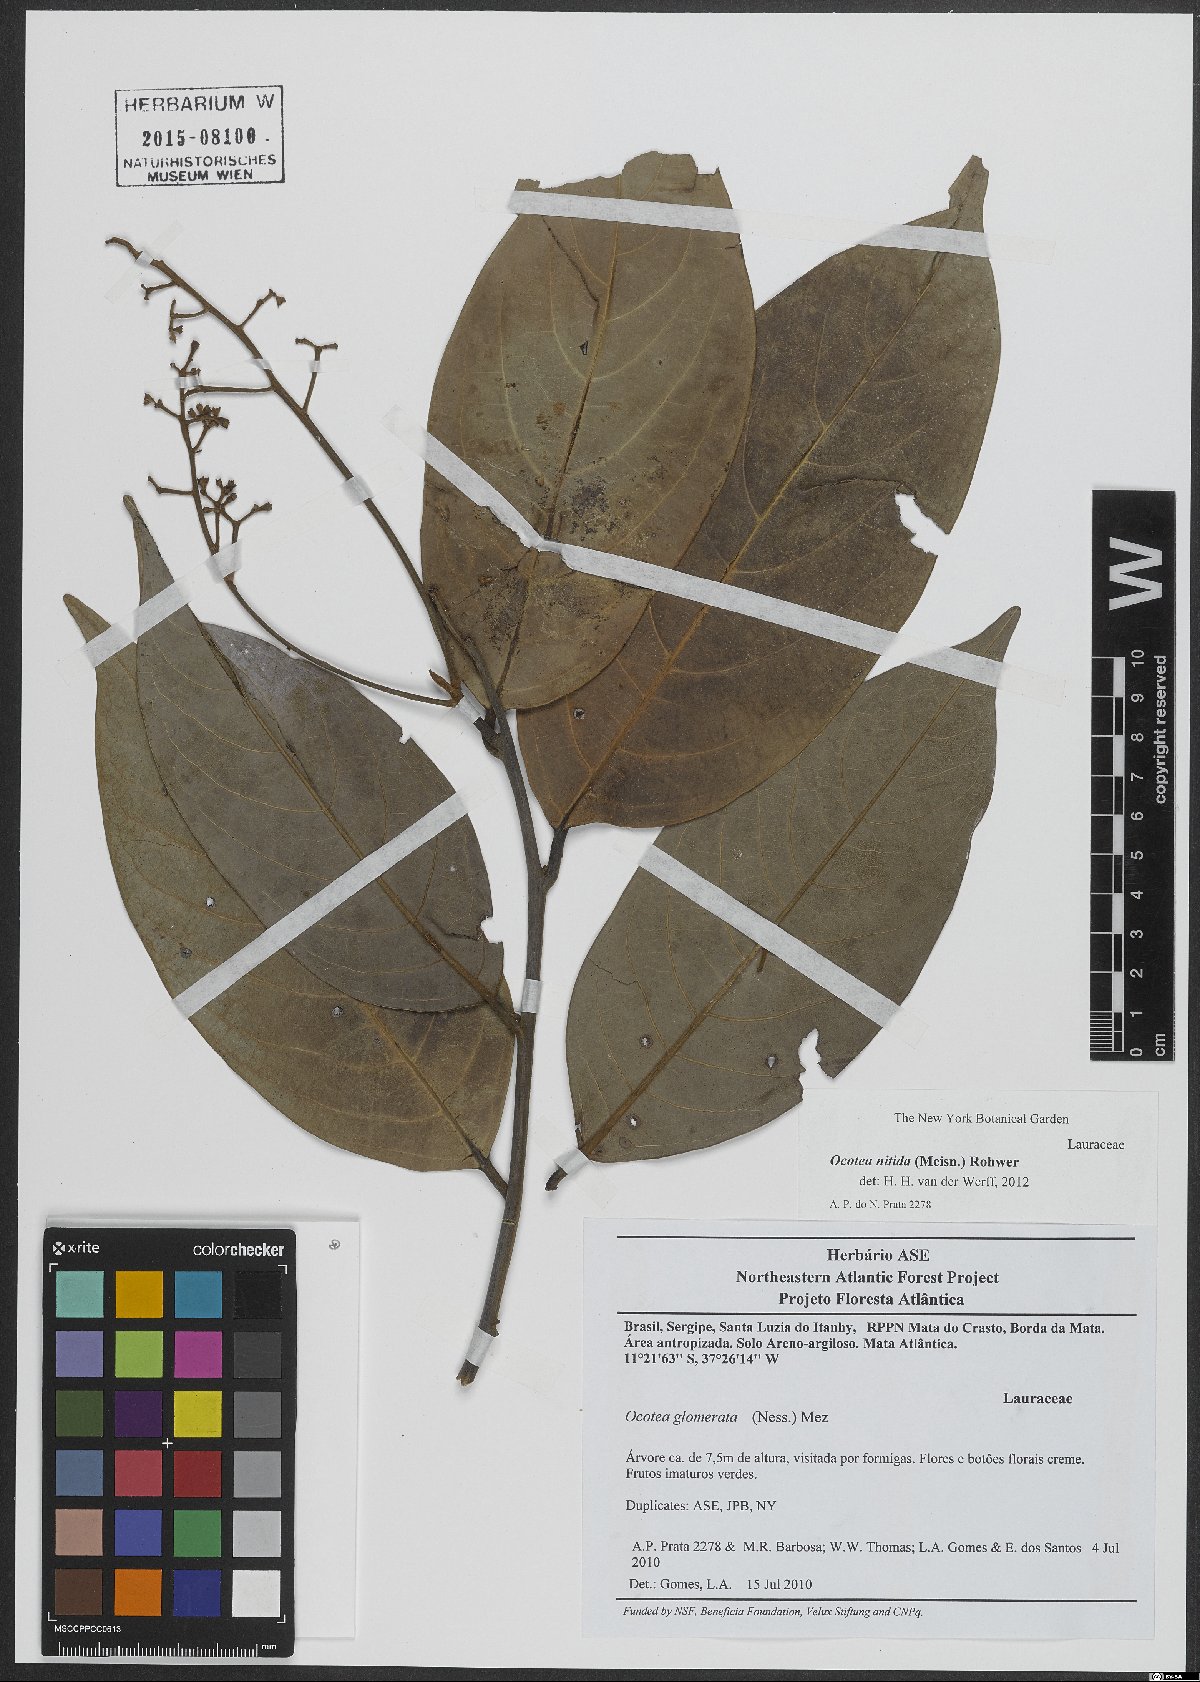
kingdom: Plantae
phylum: Tracheophyta
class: Magnoliopsida
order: Laurales
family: Lauraceae
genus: Ocotea
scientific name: Ocotea nitida
